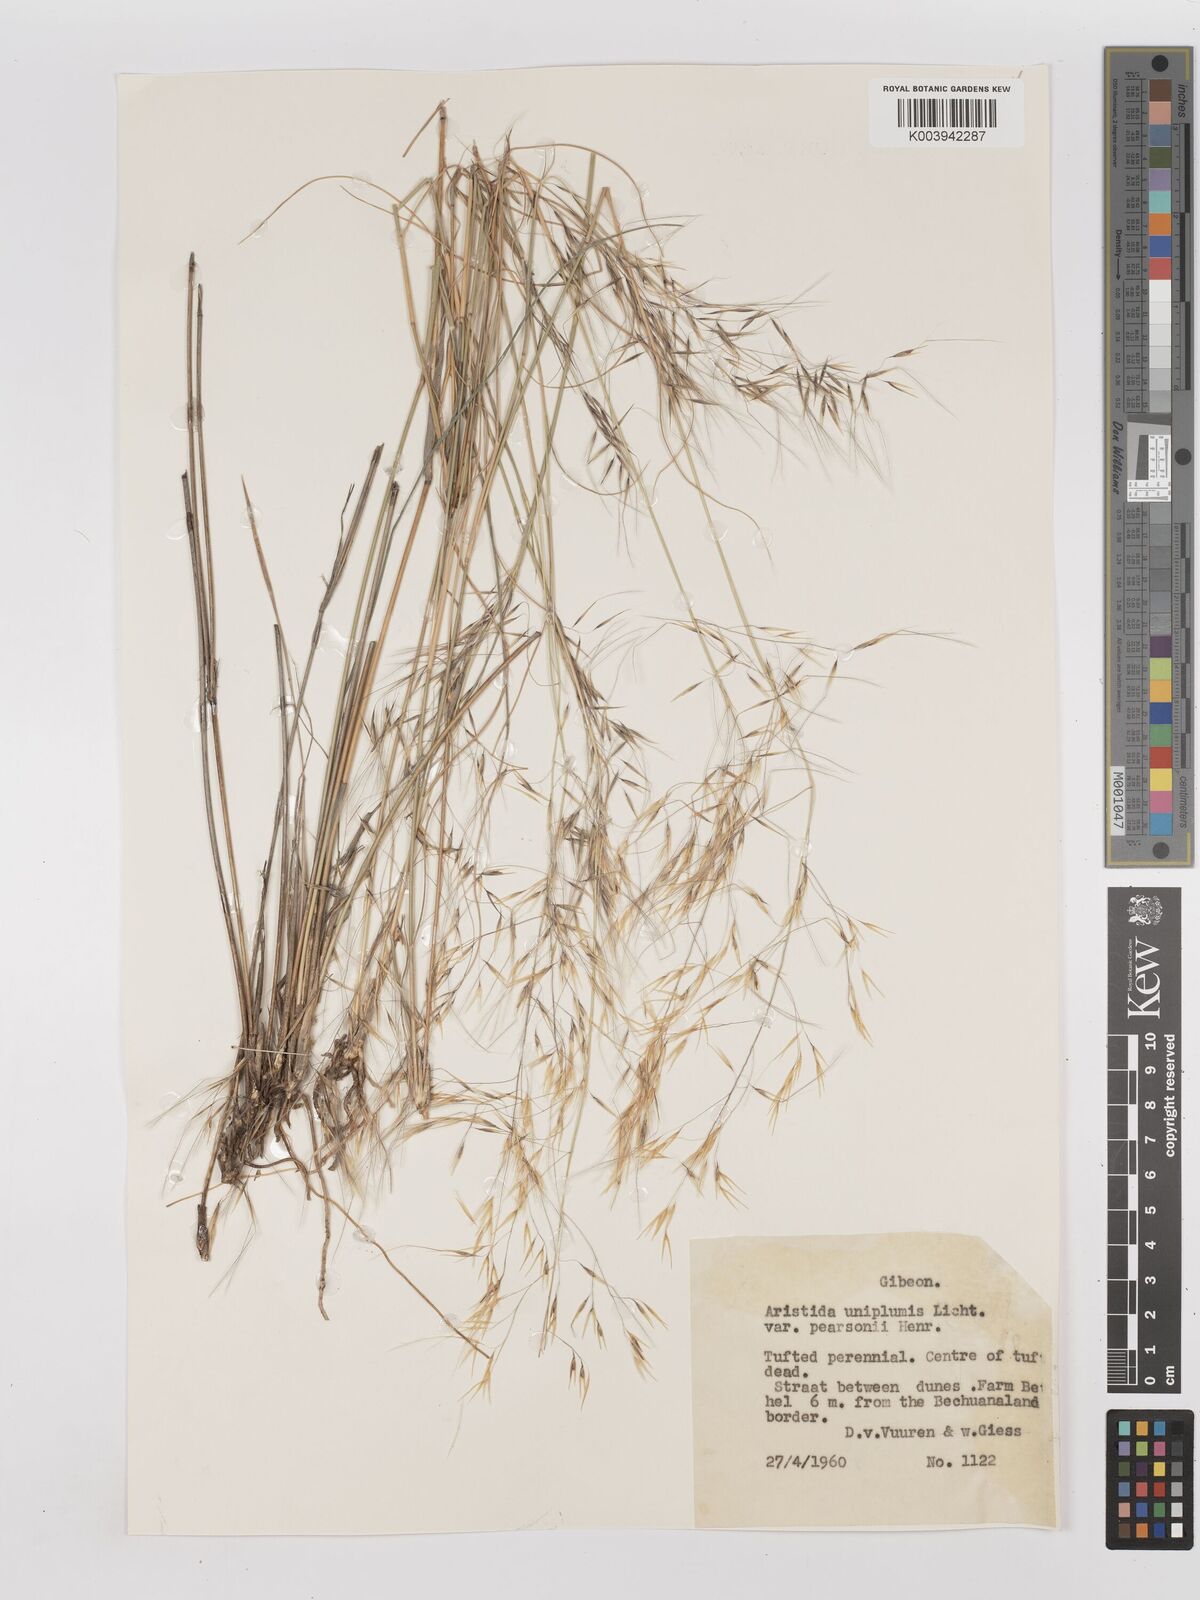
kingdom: Plantae
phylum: Tracheophyta
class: Liliopsida
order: Poales
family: Poaceae
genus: Stipagrostis
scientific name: Stipagrostis uniplumis
